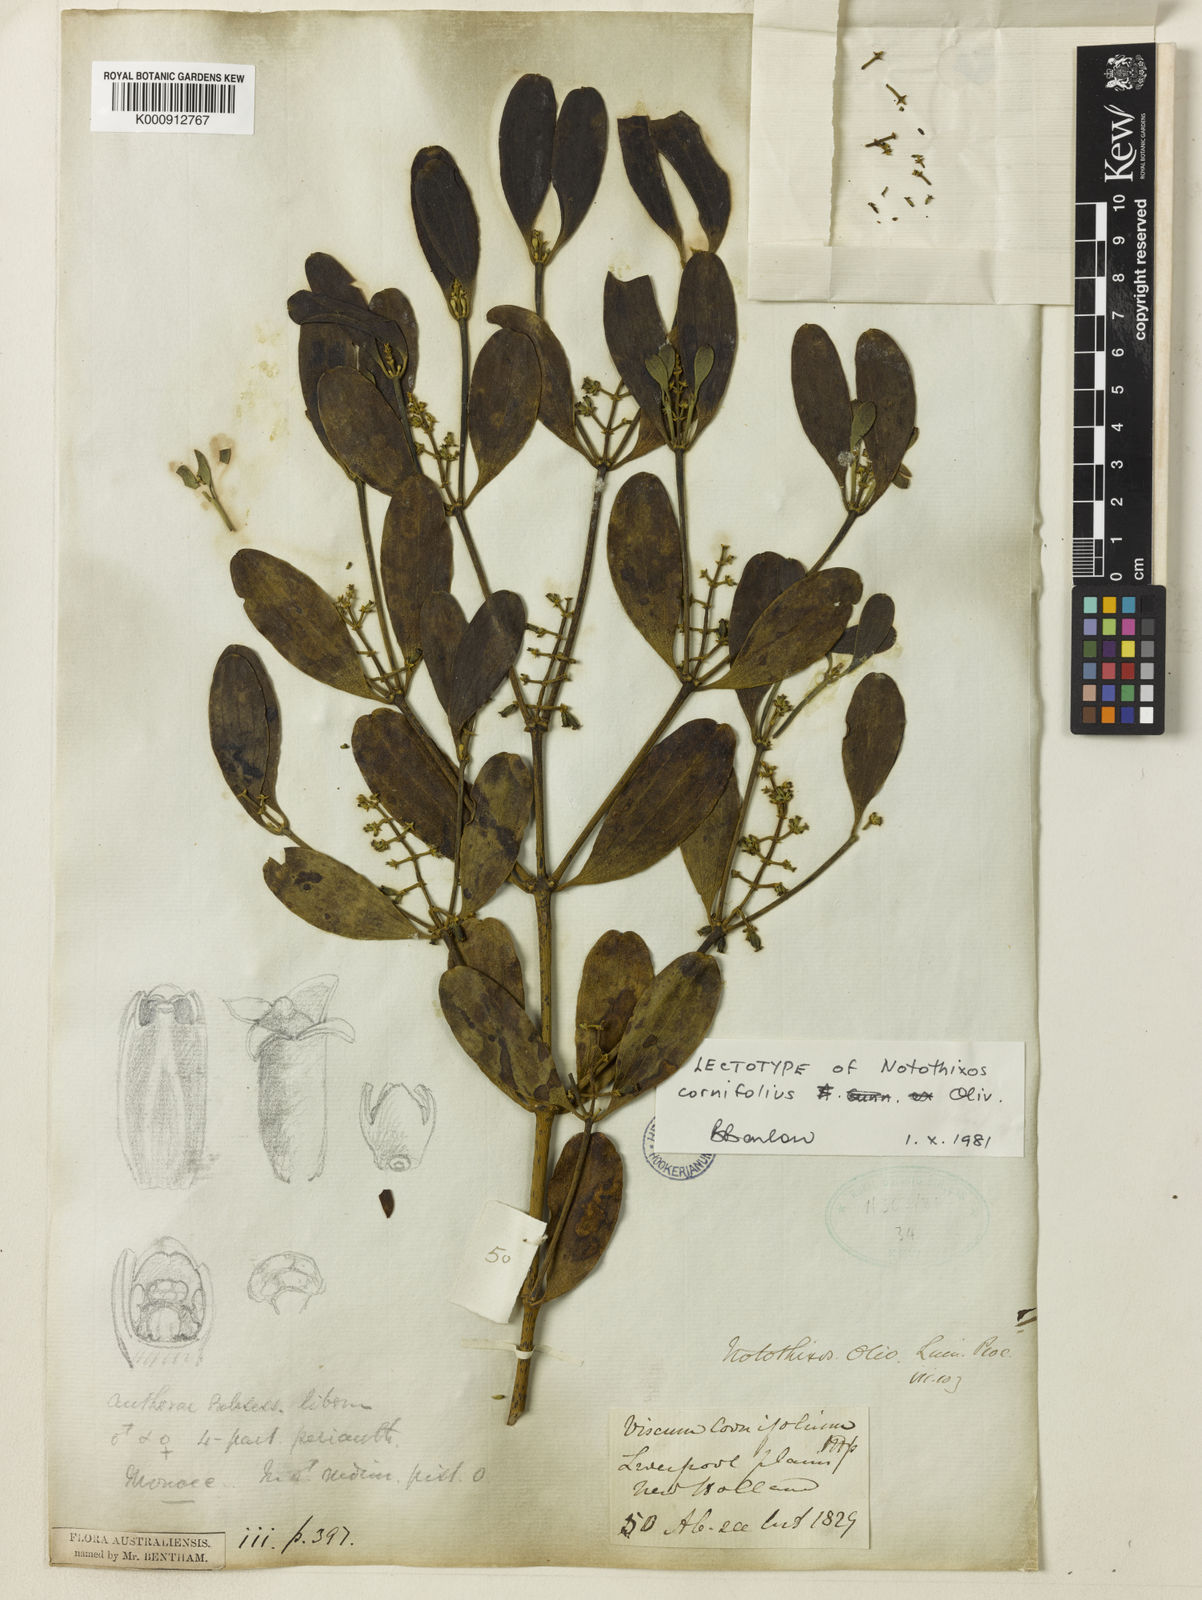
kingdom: Plantae
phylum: Tracheophyta
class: Magnoliopsida
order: Santalales
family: Viscaceae
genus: Notothixos
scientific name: Notothixos cornifolius
